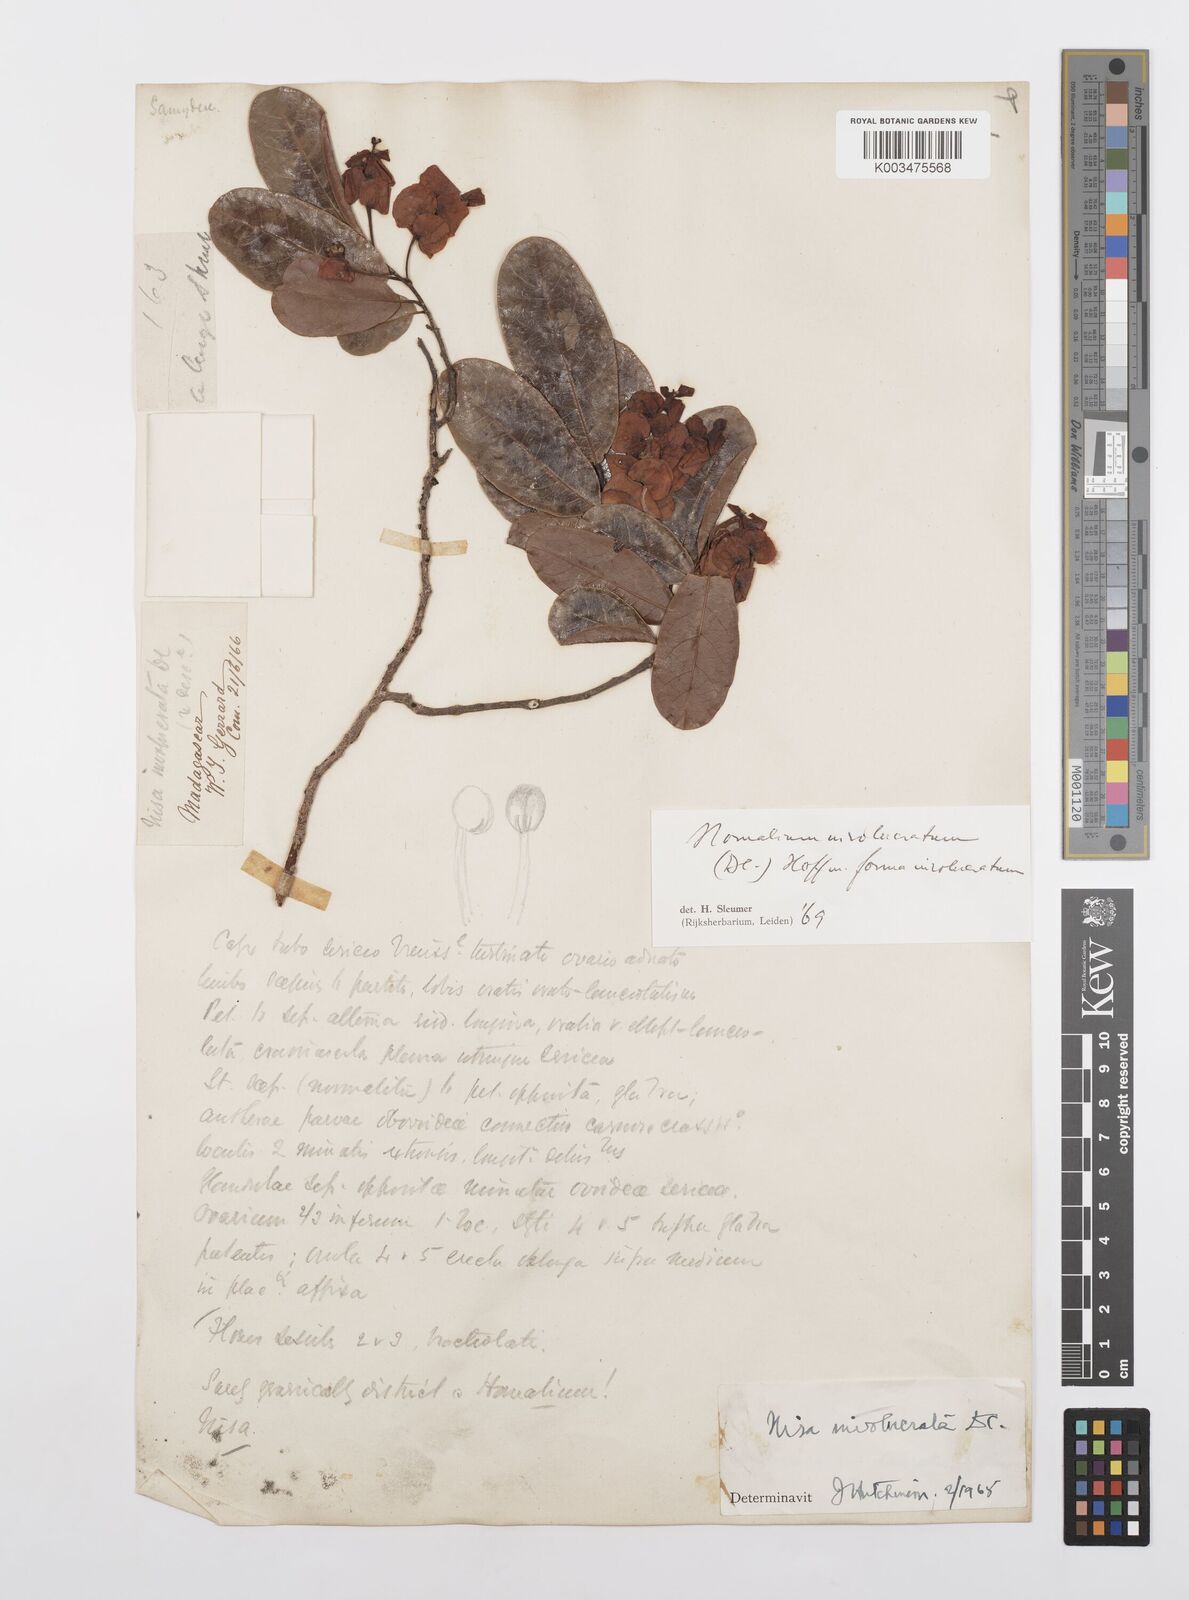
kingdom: Plantae
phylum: Tracheophyta
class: Magnoliopsida
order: Malpighiales
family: Salicaceae
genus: Homalium
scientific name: Homalium involucratum
